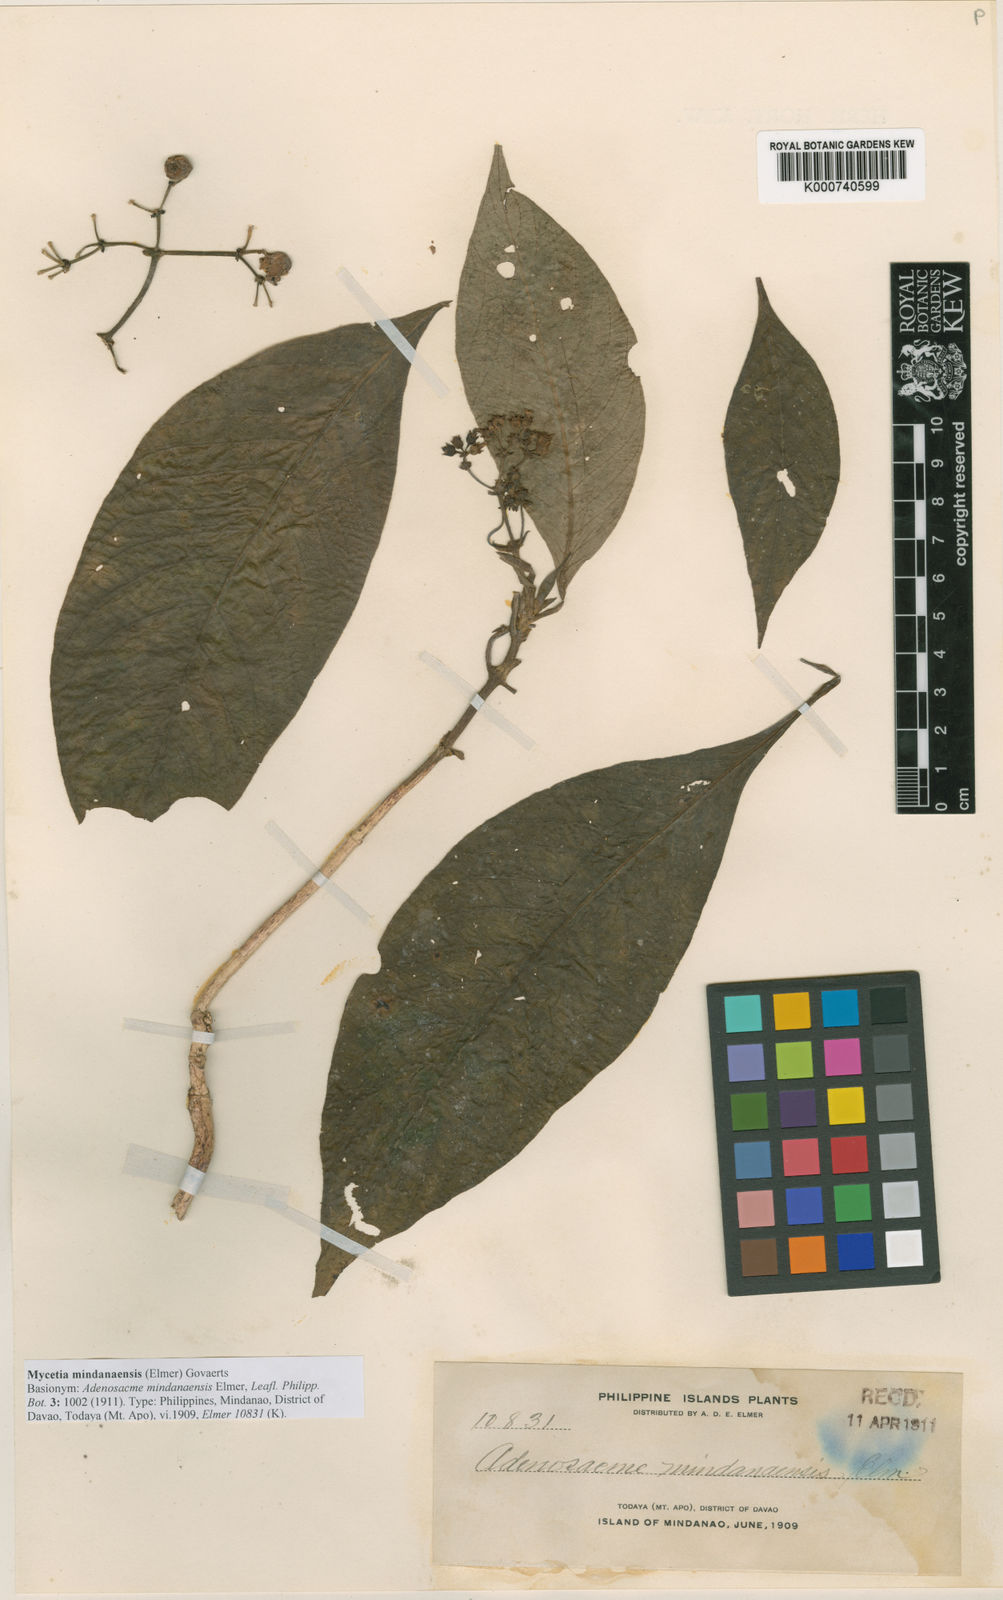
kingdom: Plantae
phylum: Tracheophyta
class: Magnoliopsida
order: Gentianales
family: Rubiaceae
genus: Mycetia
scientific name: Mycetia mindanaensis
